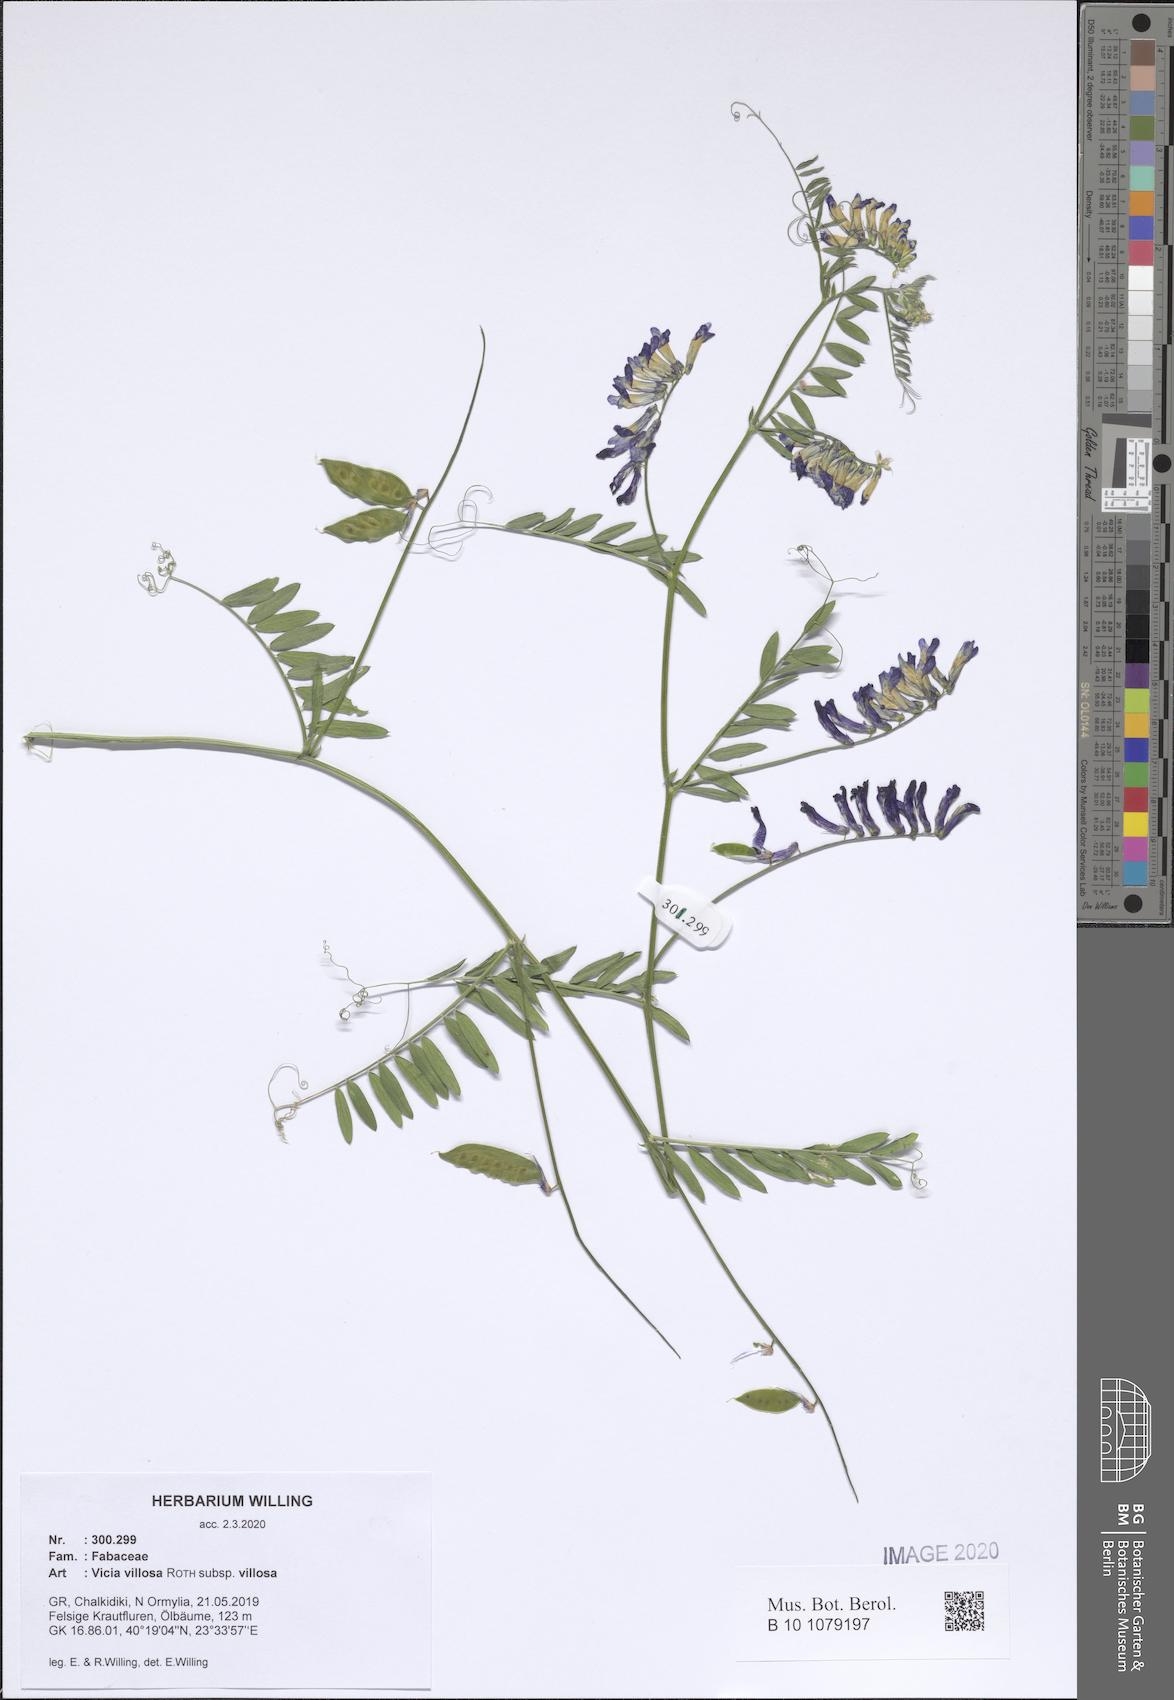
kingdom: Plantae
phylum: Tracheophyta
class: Magnoliopsida
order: Fabales
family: Fabaceae
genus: Vicia
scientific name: Vicia villosa
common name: Fodder vetch
